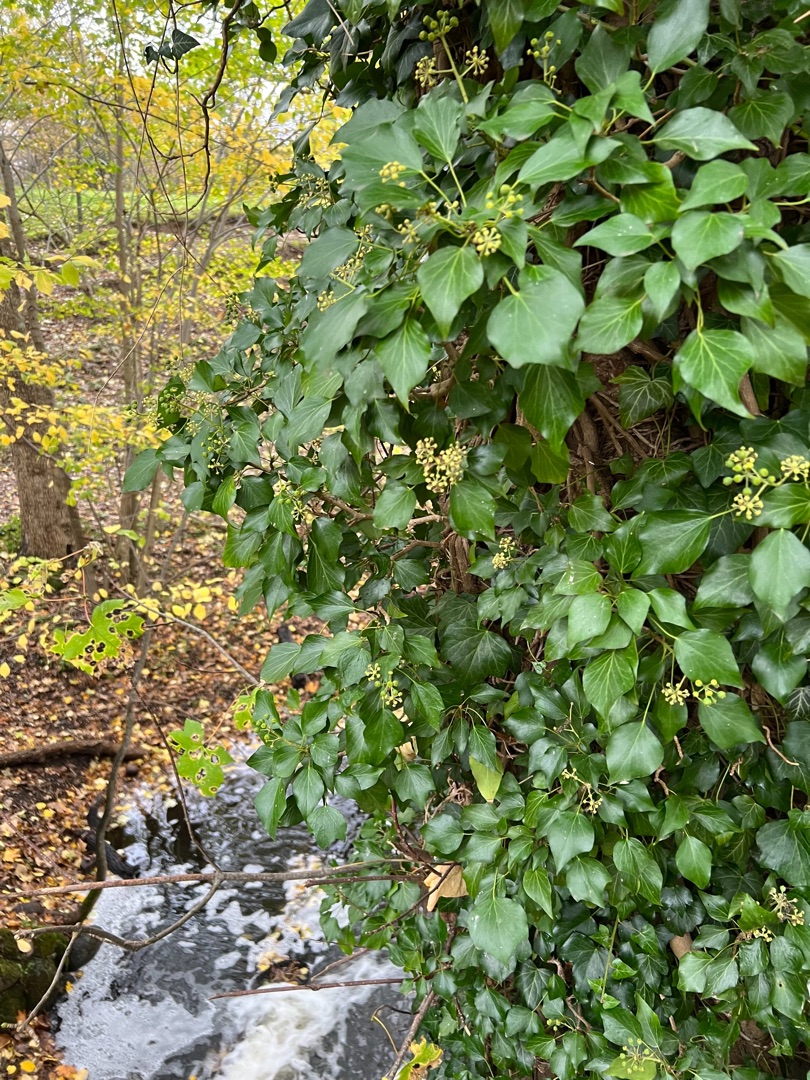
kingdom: Plantae
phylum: Tracheophyta
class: Magnoliopsida
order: Apiales
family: Araliaceae
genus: Hedera
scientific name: Hedera helix
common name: Vedbend
